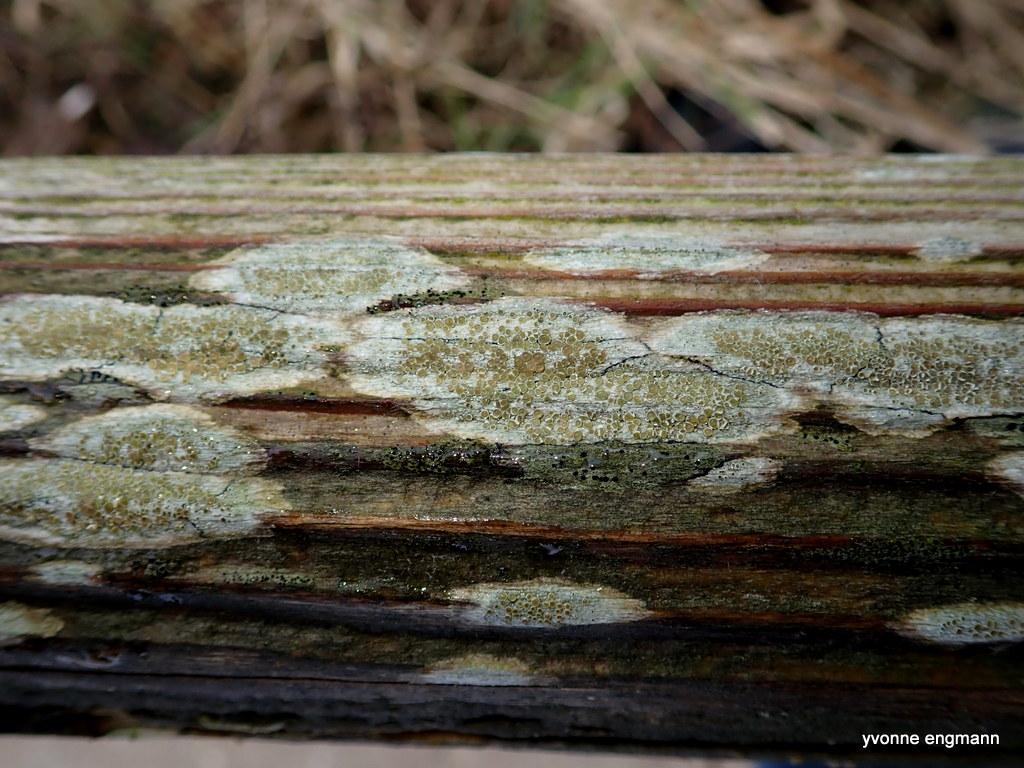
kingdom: Fungi
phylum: Ascomycota
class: Lecanoromycetes
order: Lecanorales
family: Lecanoraceae
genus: Lecanora
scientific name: Lecanora
